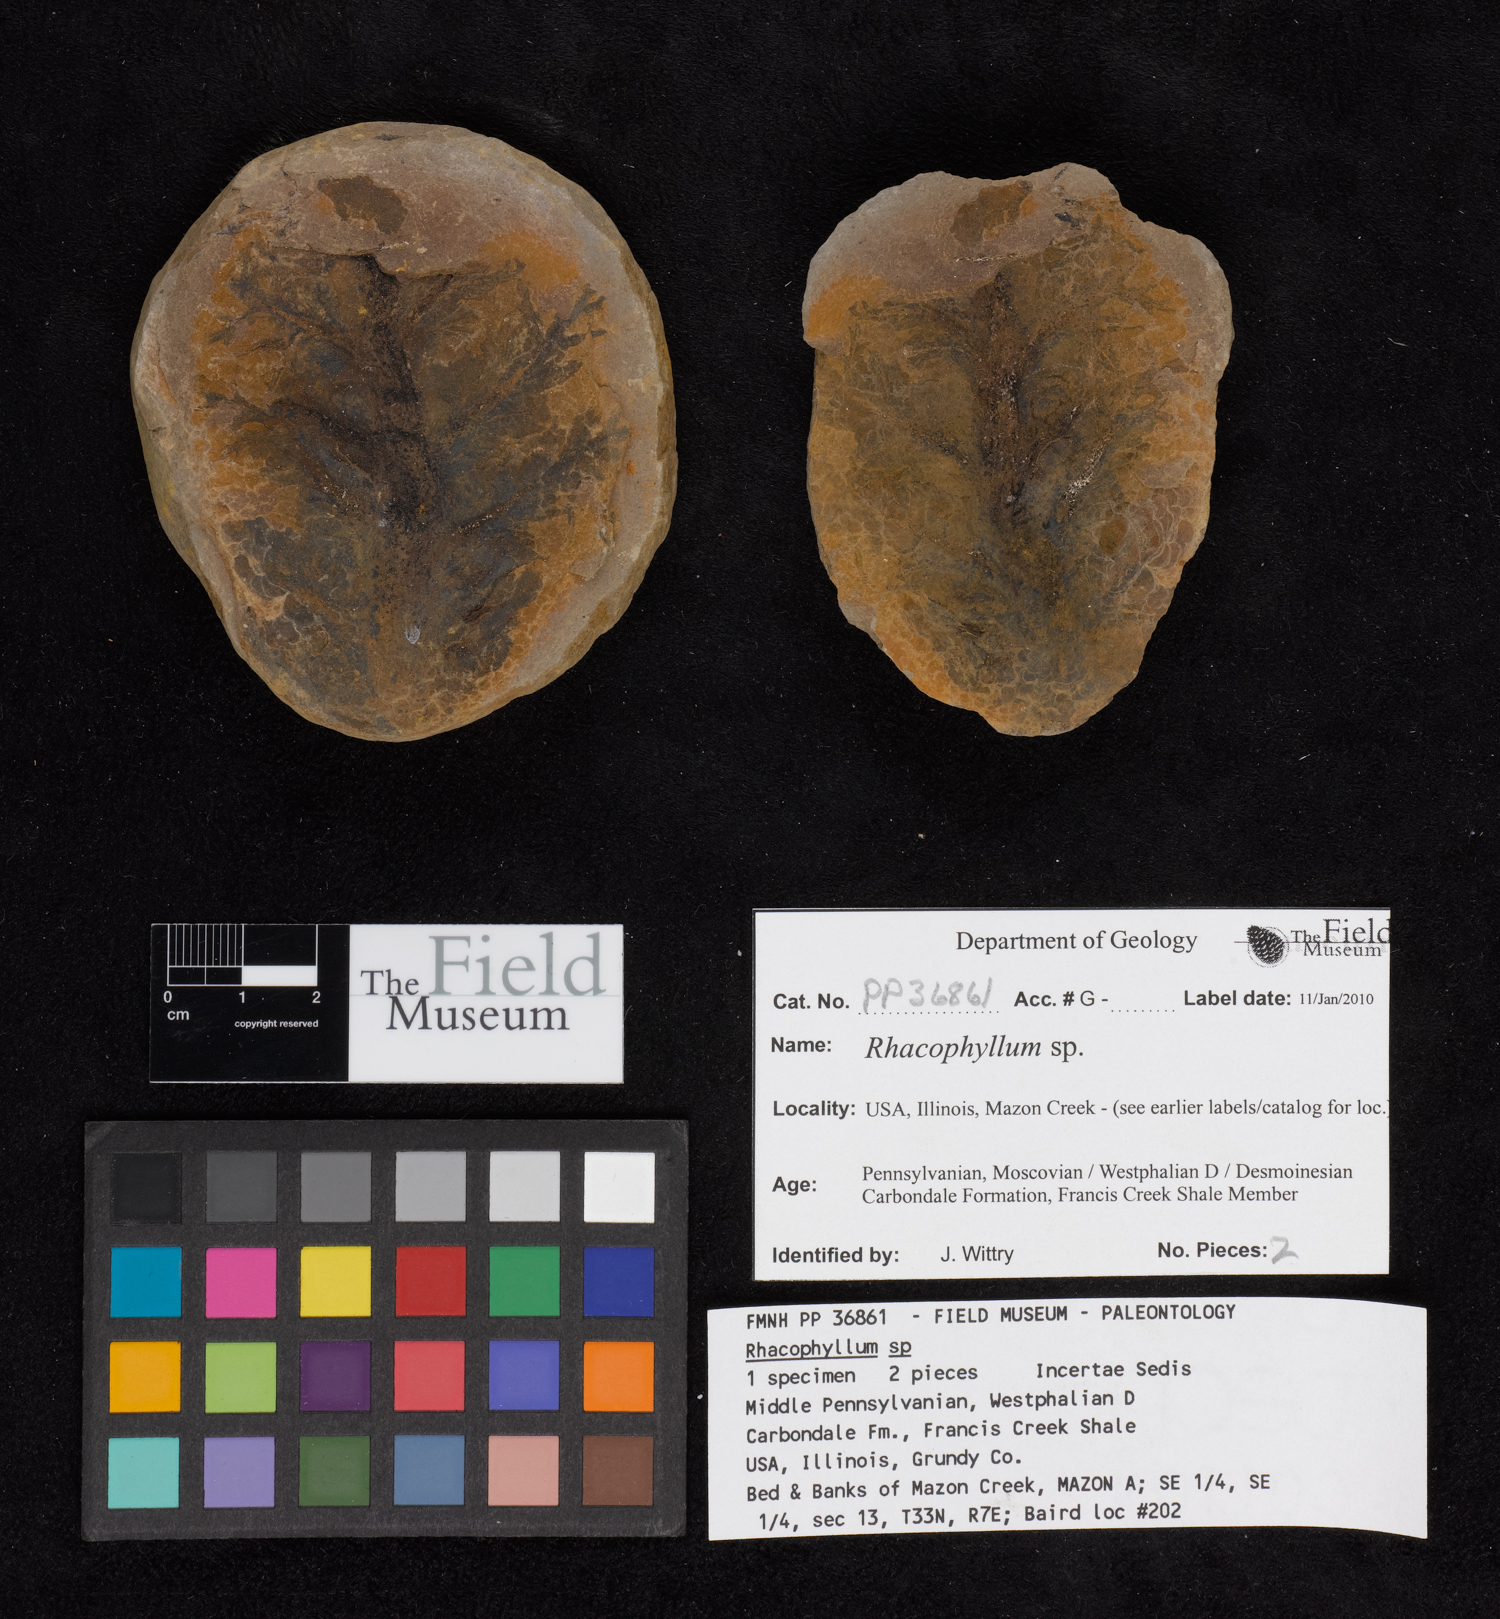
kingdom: Plantae
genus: Rhacophyllum
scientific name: Rhacophyllum
